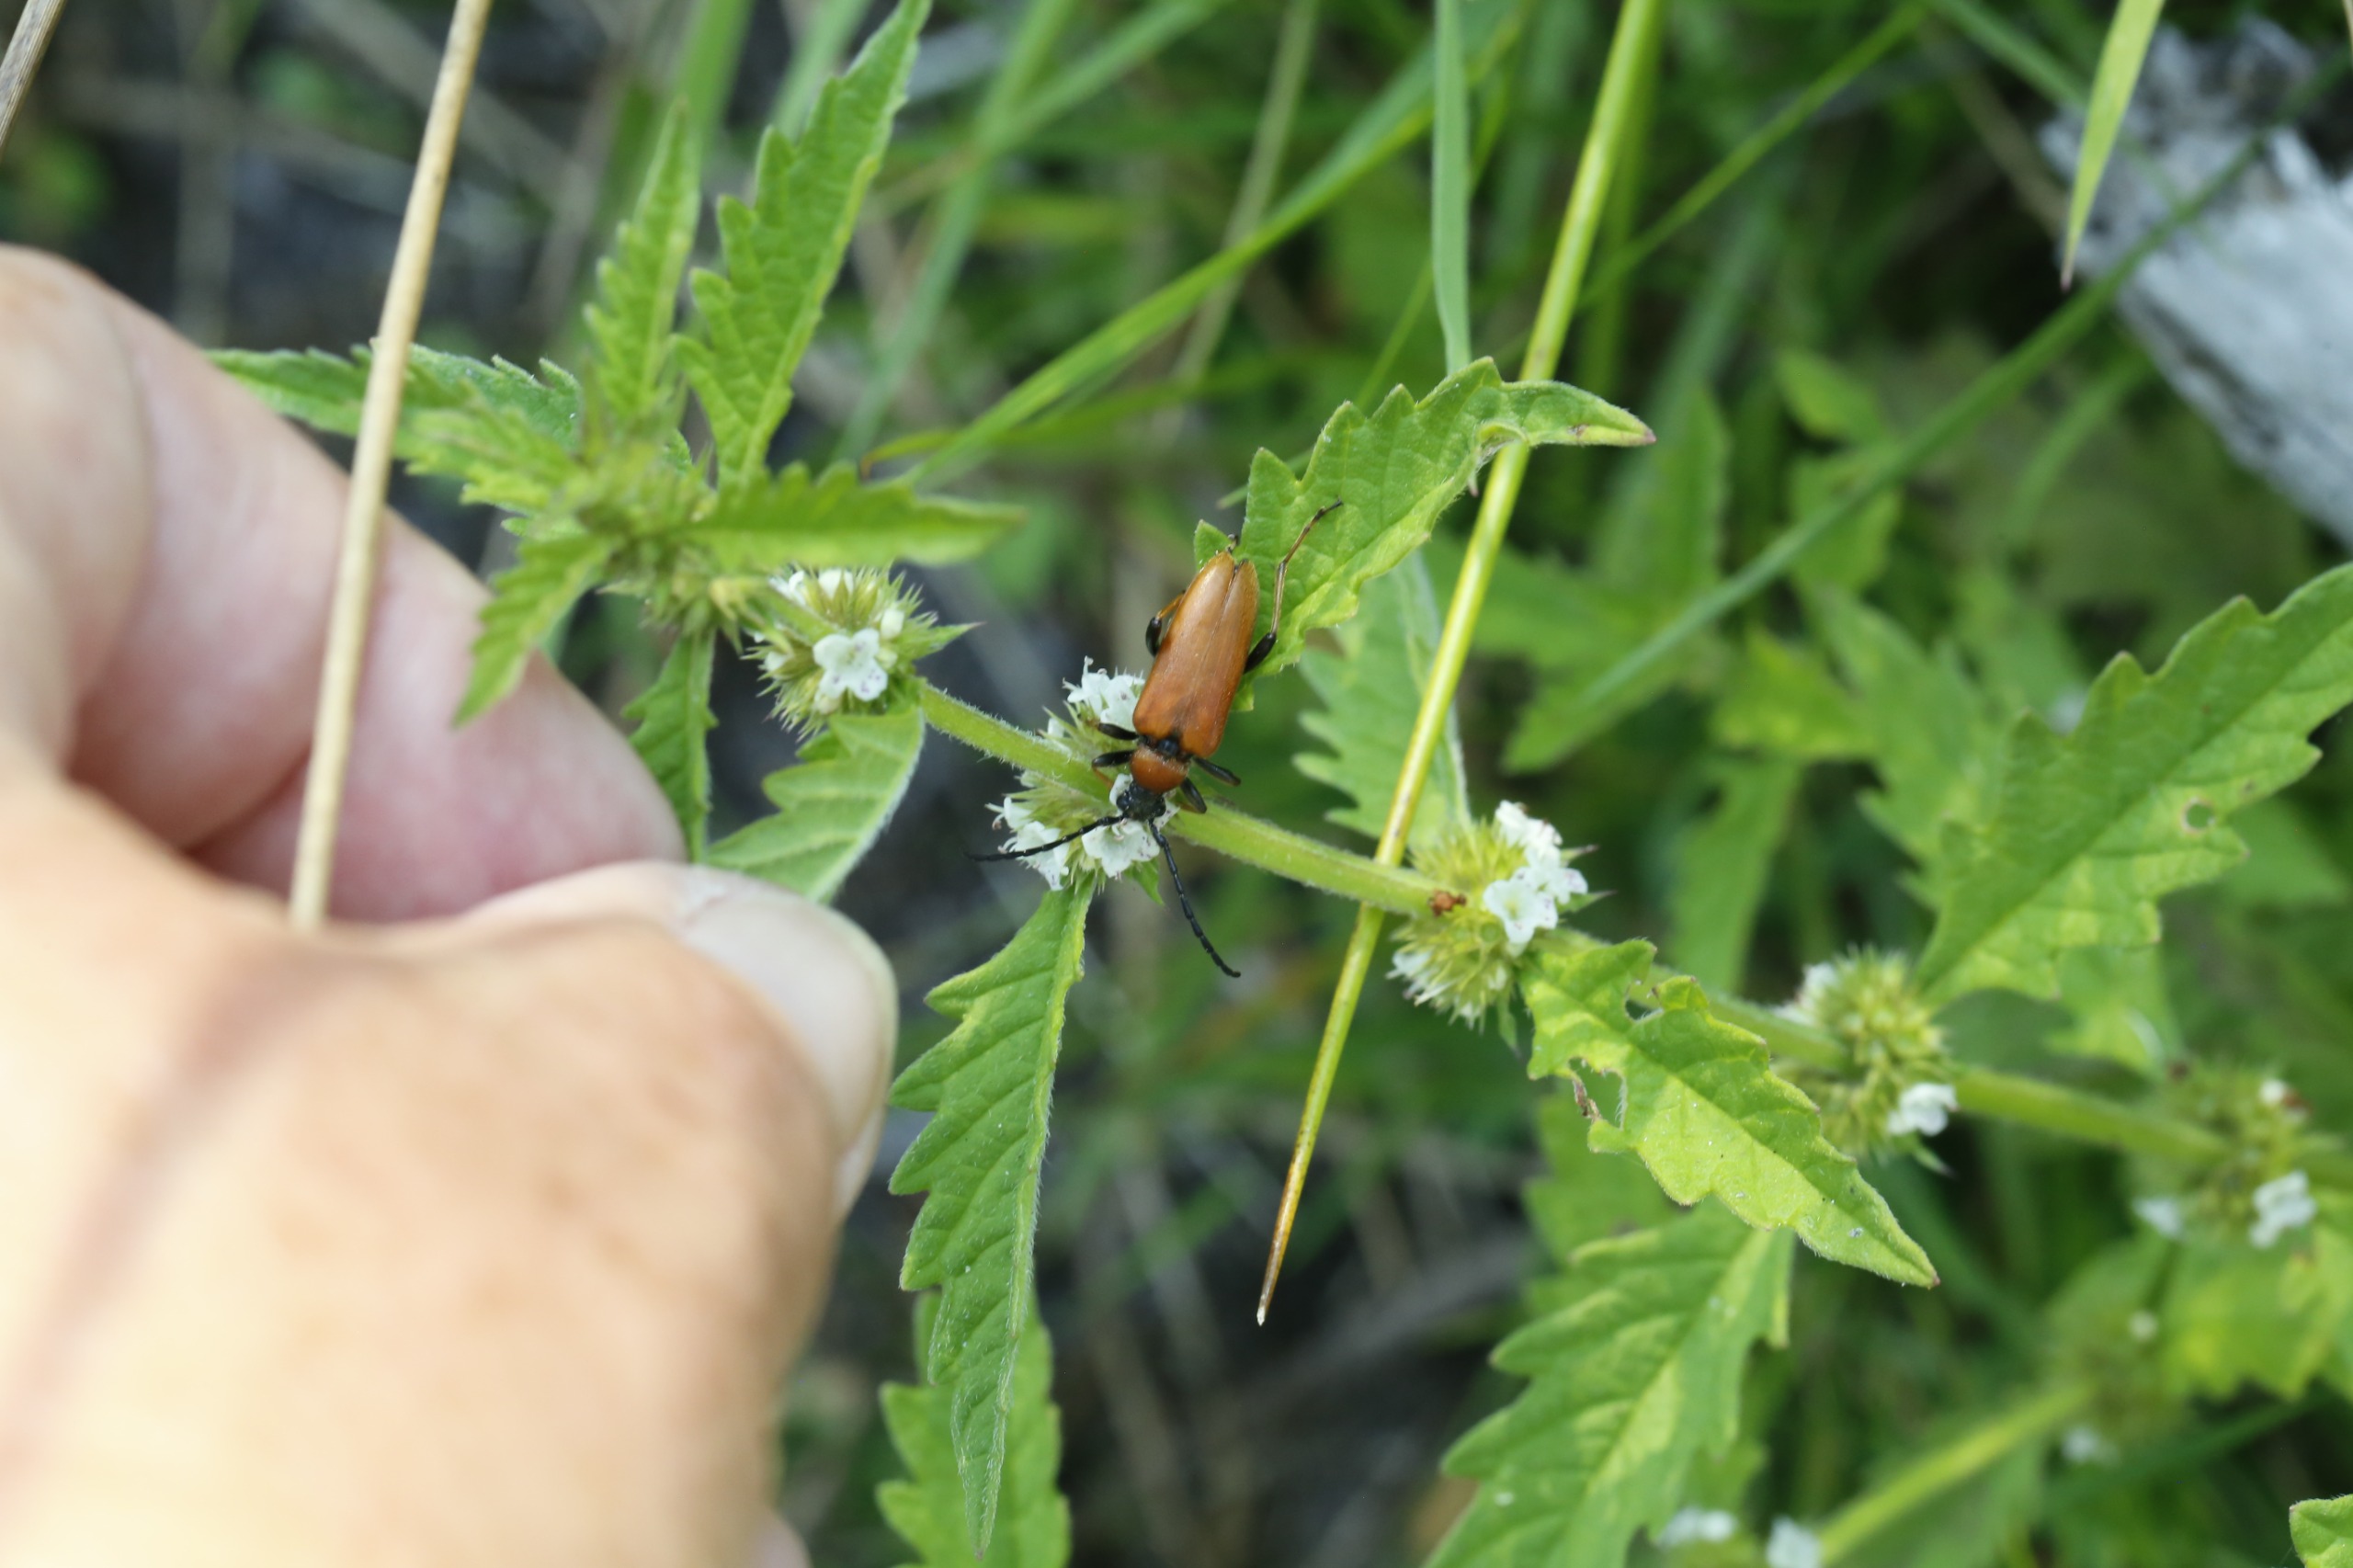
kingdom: Animalia
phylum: Arthropoda
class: Insecta
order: Coleoptera
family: Cerambycidae
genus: Stictoleptura
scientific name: Stictoleptura rubra
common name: Rød blomsterbuk
